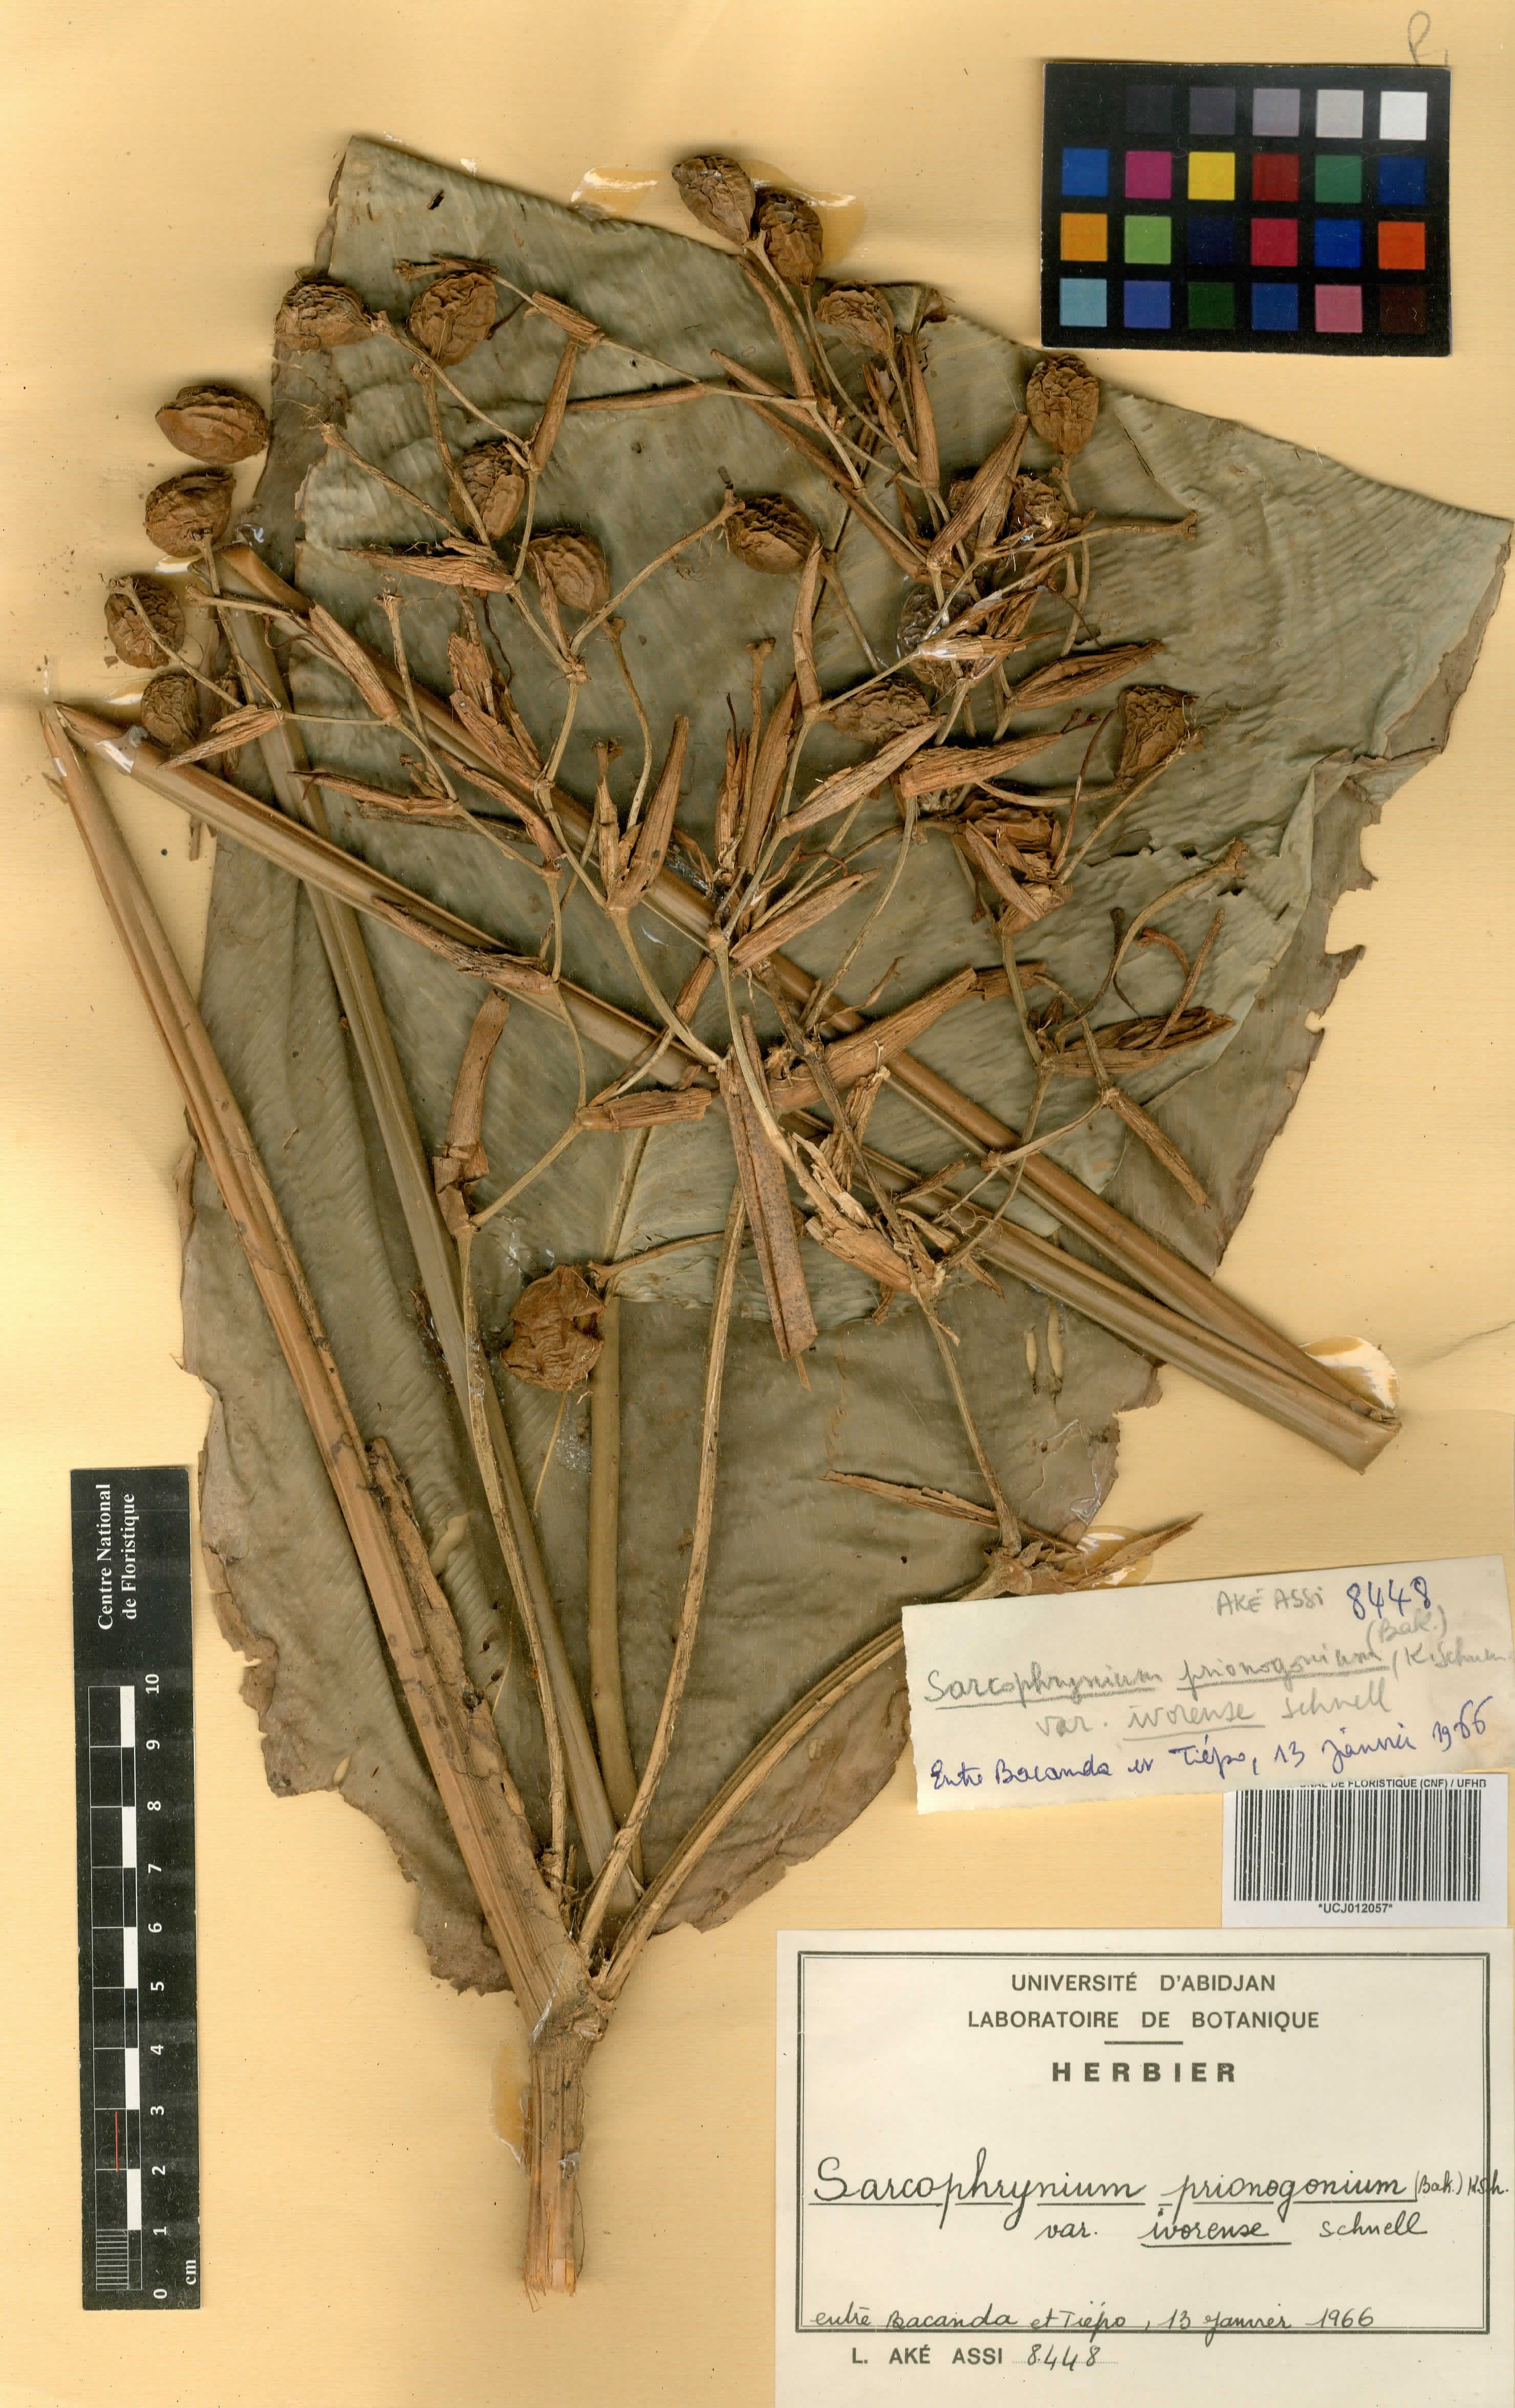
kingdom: Plantae
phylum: Tracheophyta
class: Liliopsida
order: Zingiberales
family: Marantaceae
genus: Sarcophrynium
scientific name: Sarcophrynium prionogonium
